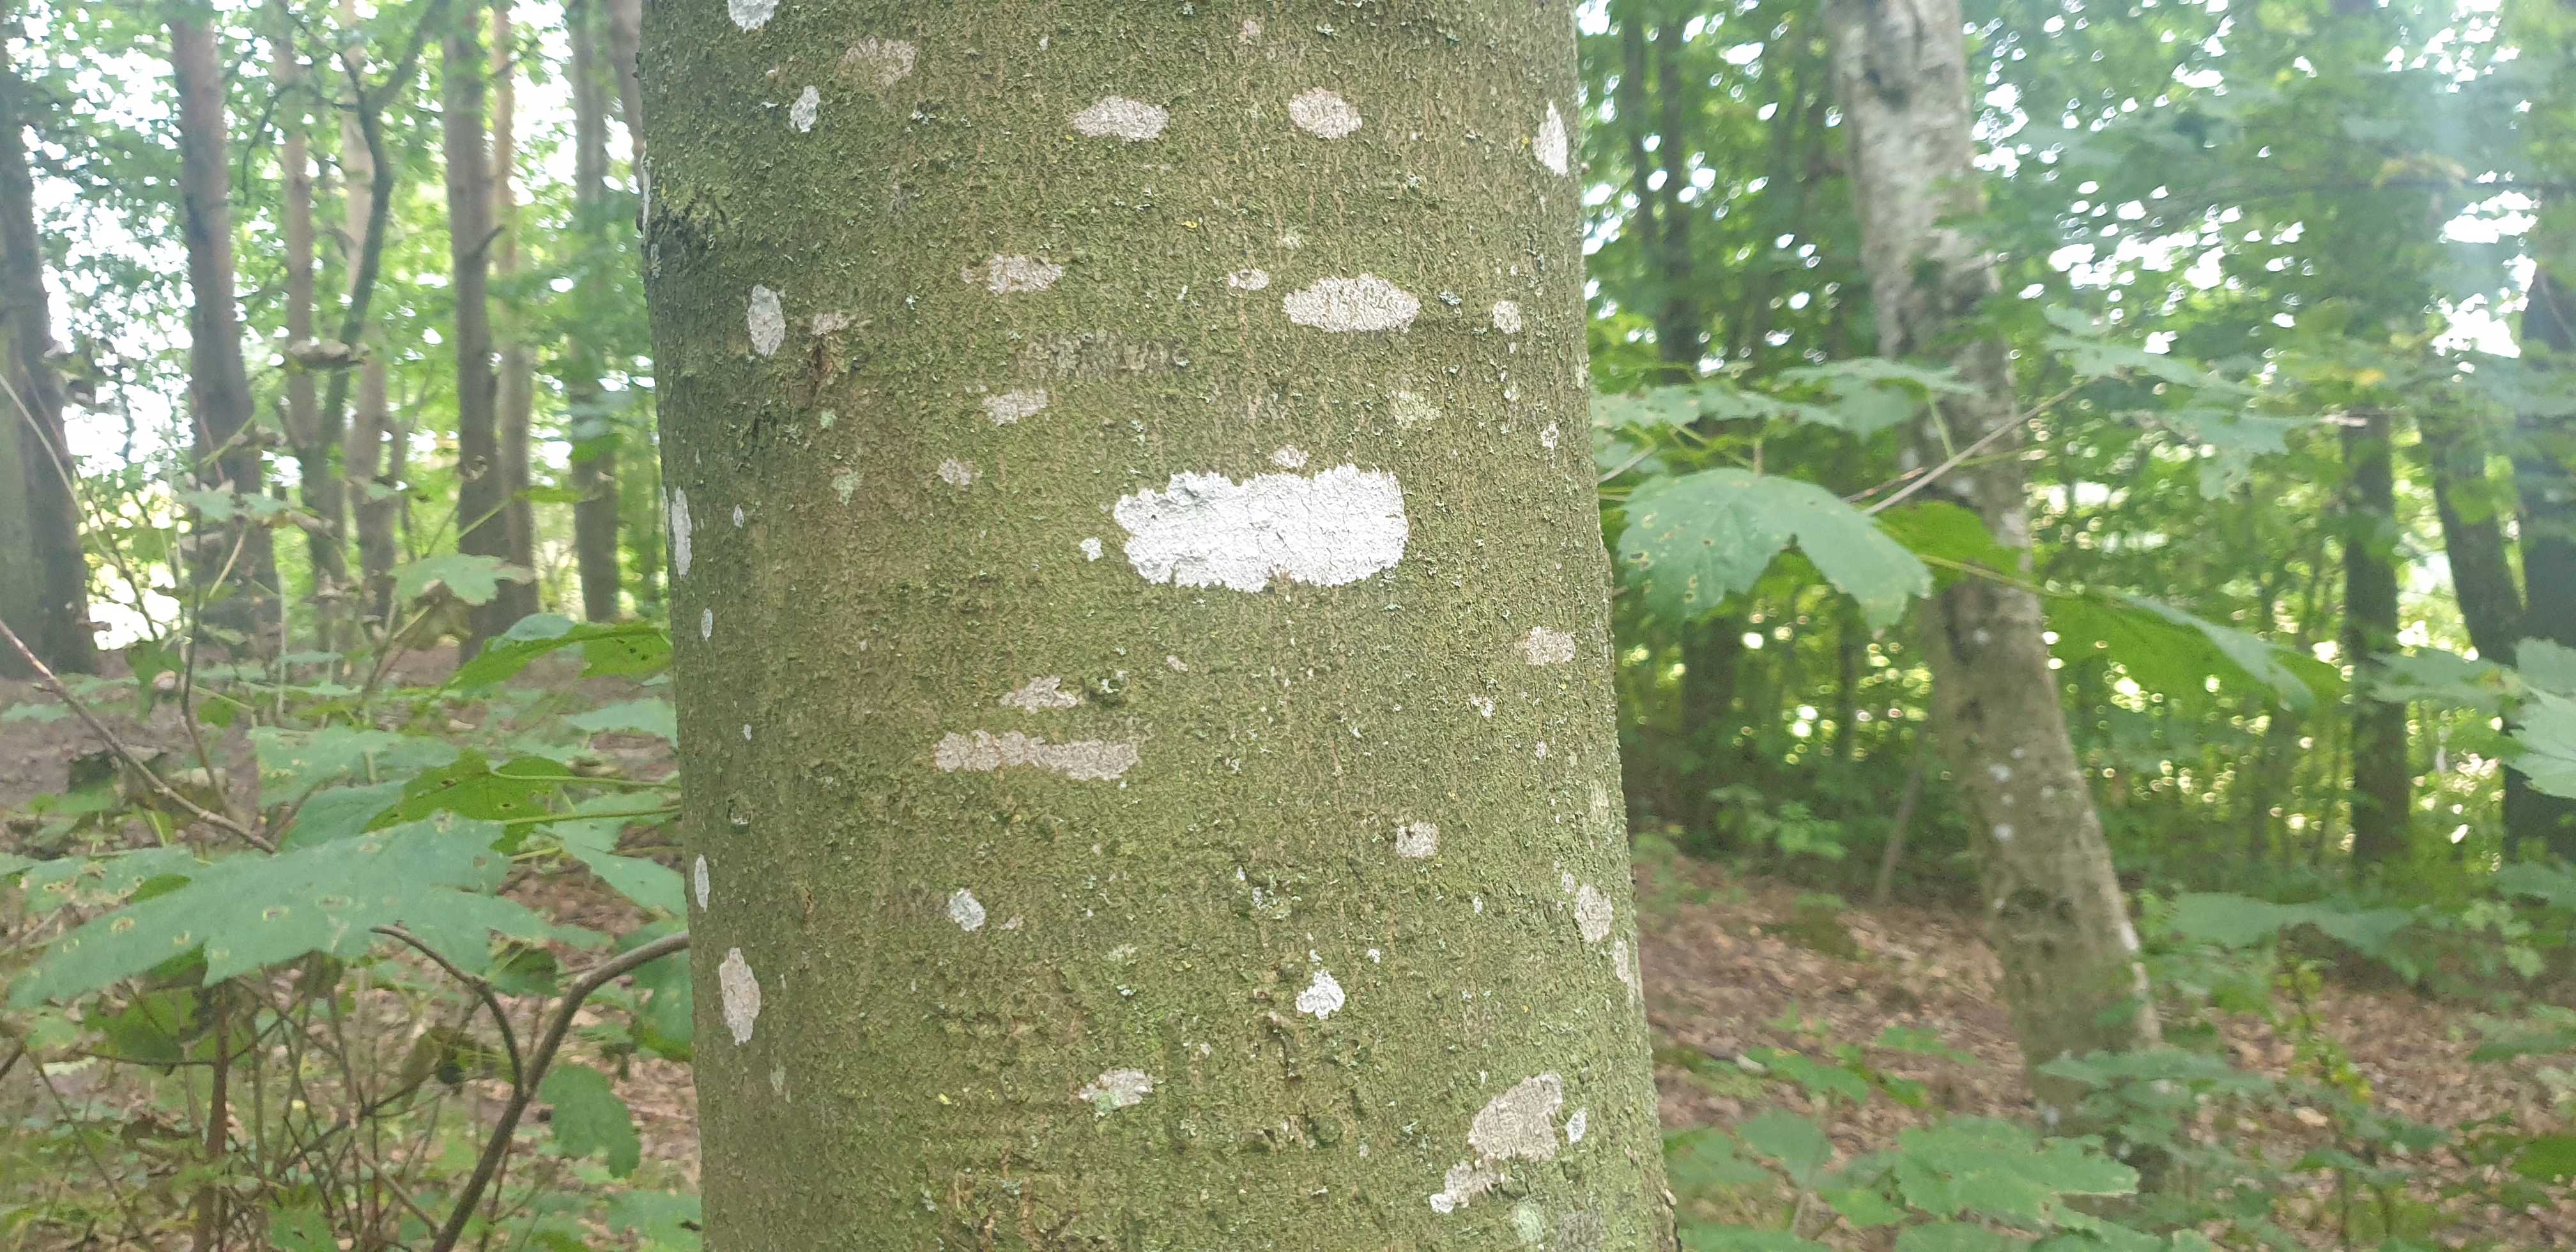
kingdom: Fungi
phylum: Ascomycota
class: Lecanoromycetes
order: Ostropales
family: Phlyctidaceae
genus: Phlyctis
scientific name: Phlyctis argena
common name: almindelig sølvlav
